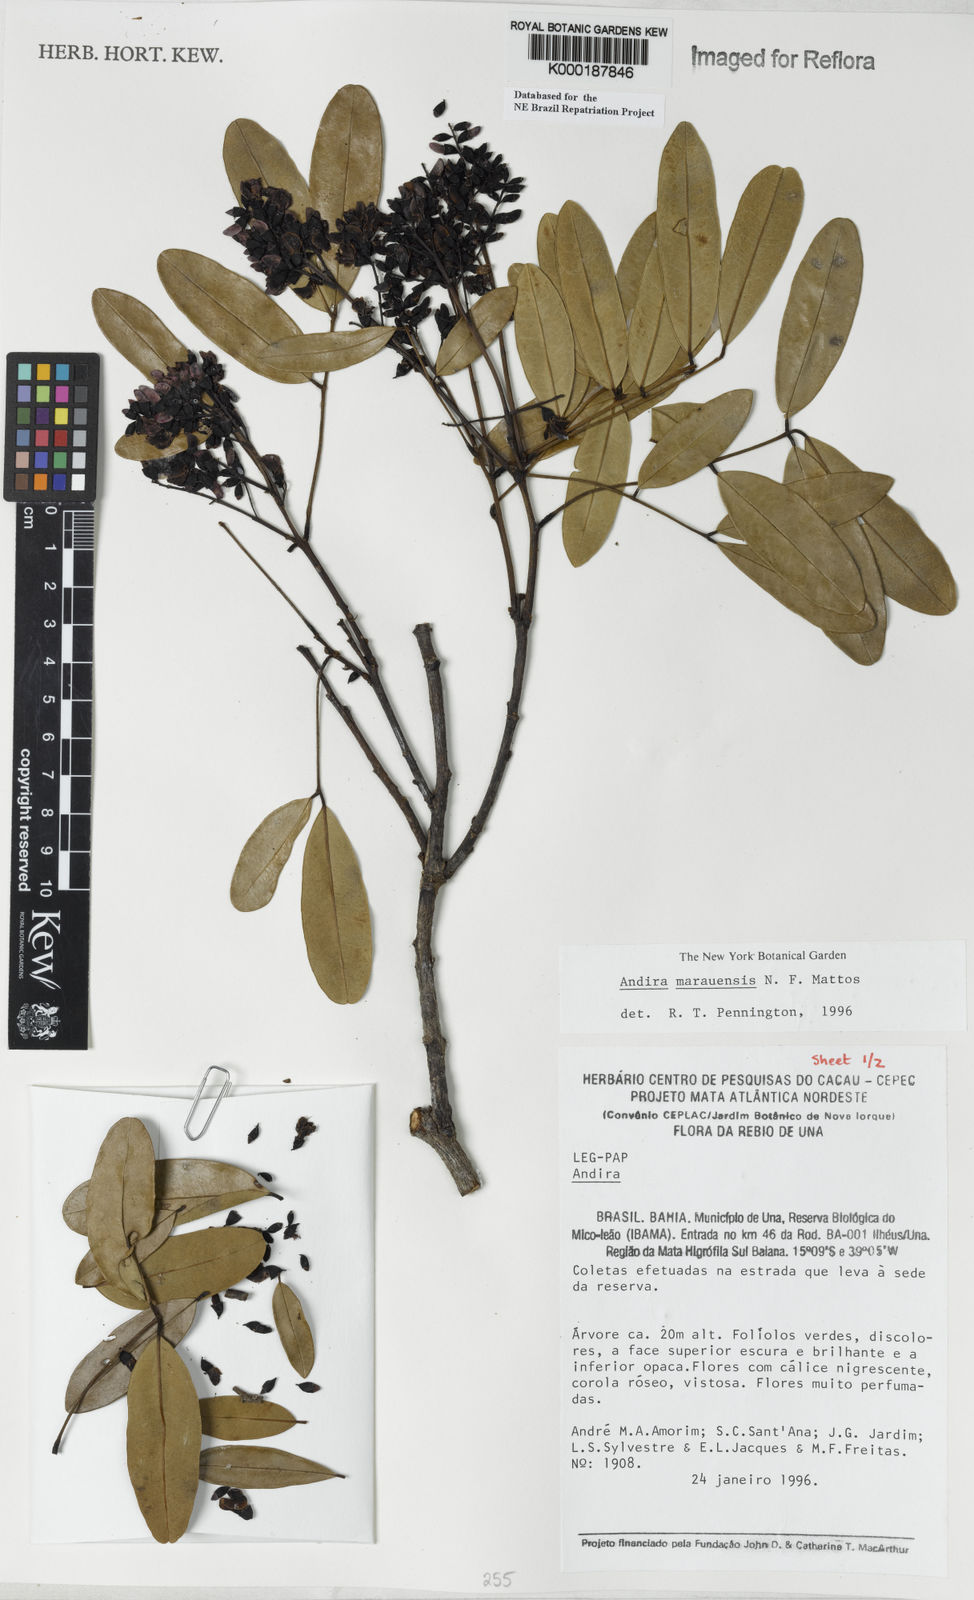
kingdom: Plantae
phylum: Tracheophyta
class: Magnoliopsida
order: Fabales
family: Fabaceae
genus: Andira
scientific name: Andira marauensis
